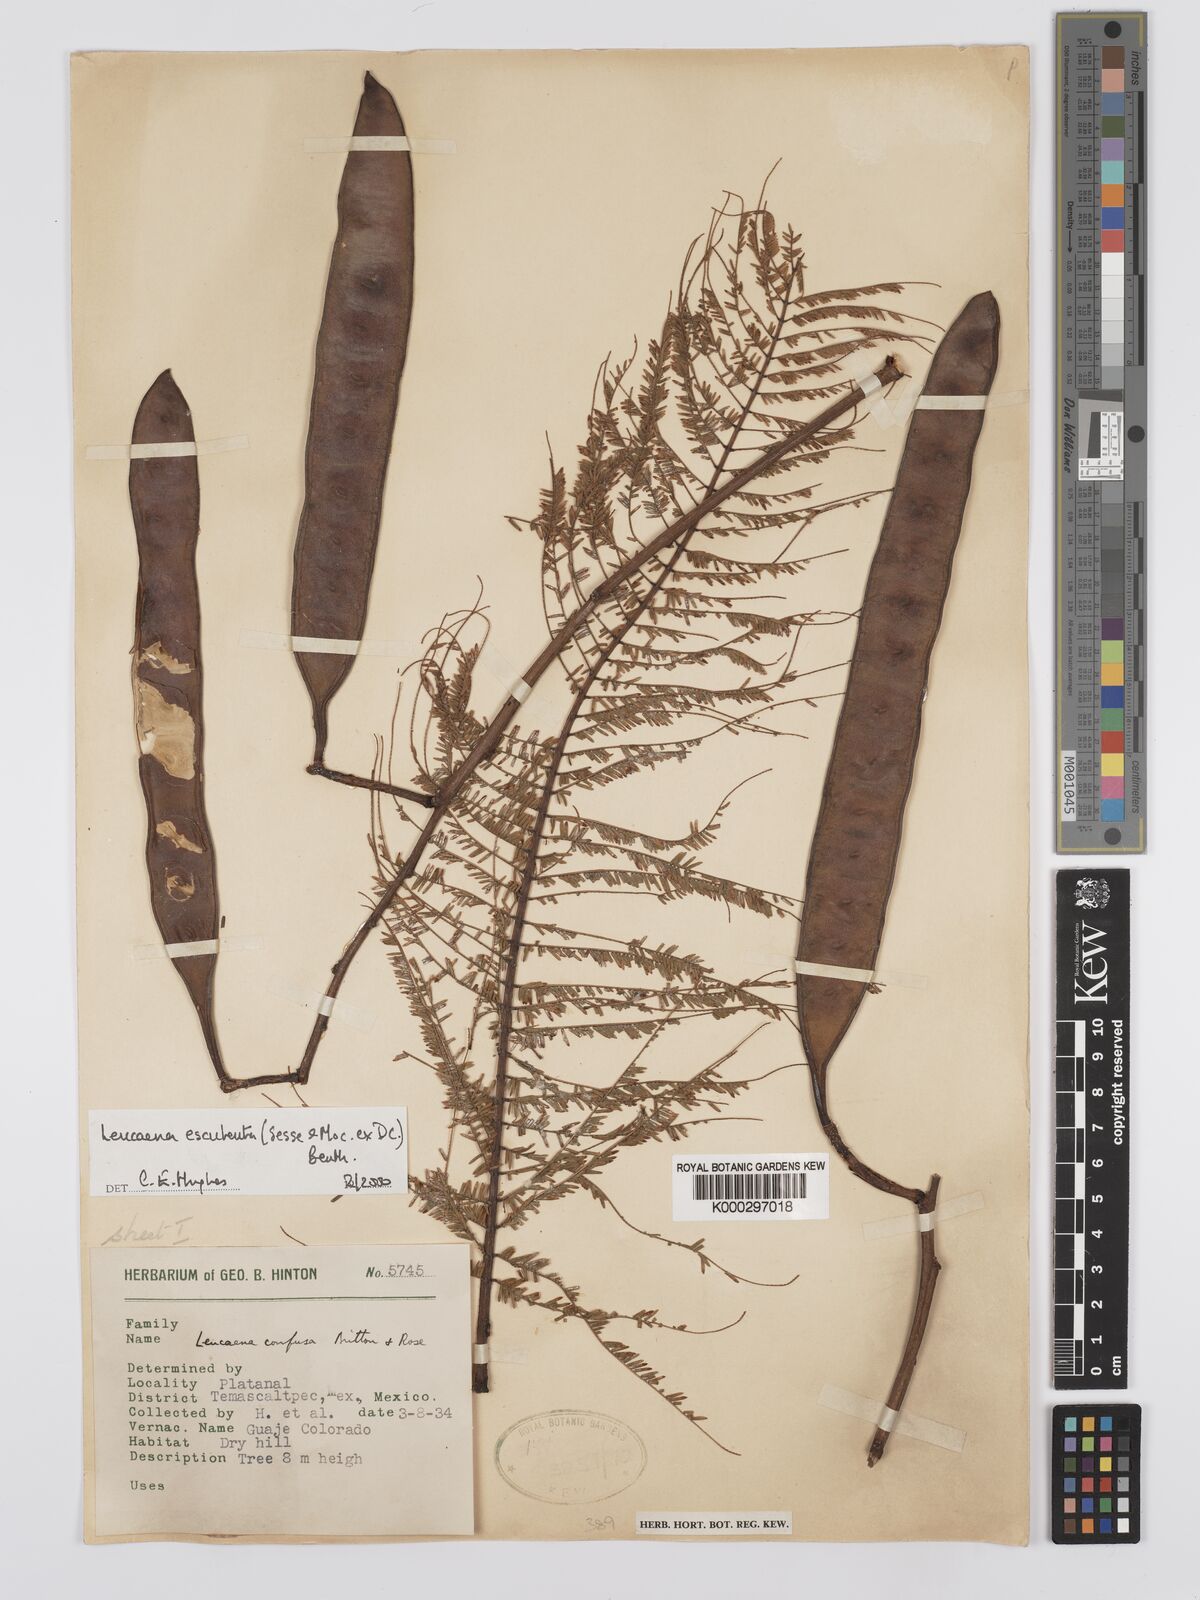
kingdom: Plantae
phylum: Tracheophyta
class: Magnoliopsida
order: Fabales
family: Fabaceae
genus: Leucaena
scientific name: Leucaena esculenta
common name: Guaje
